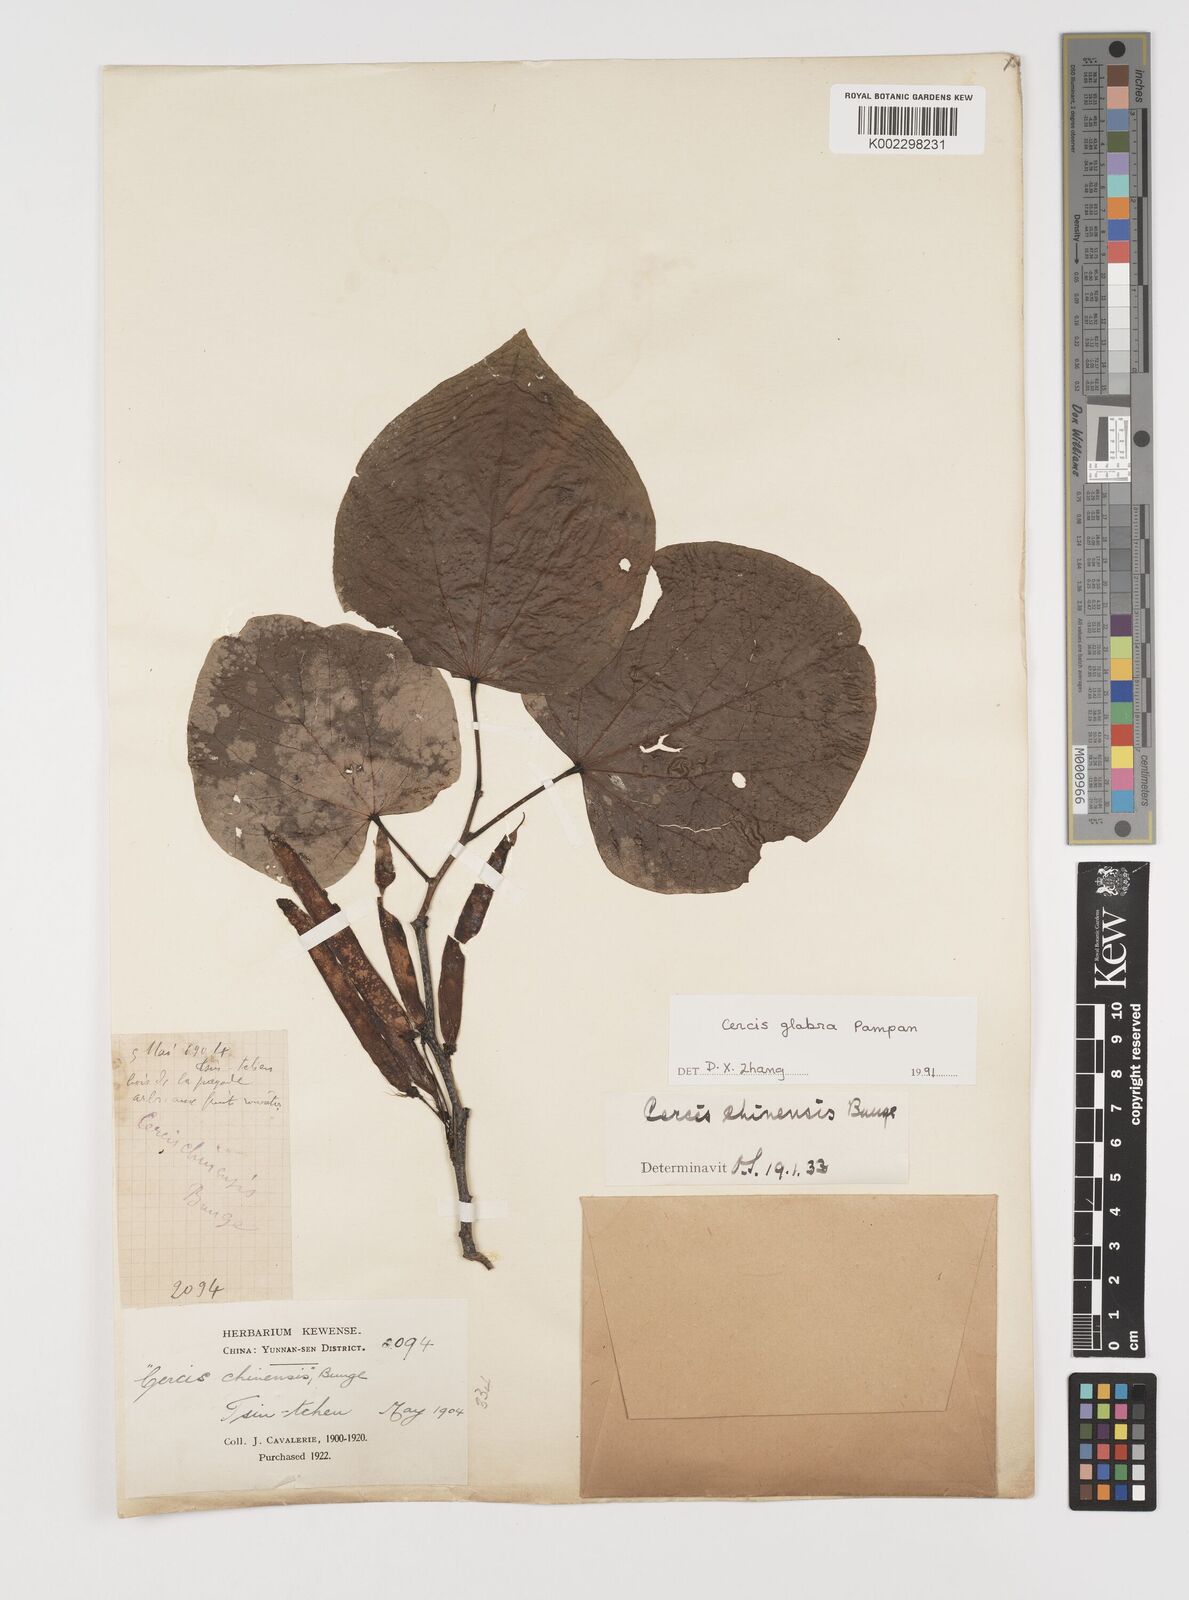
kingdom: Plantae
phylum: Tracheophyta
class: Magnoliopsida
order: Fabales
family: Fabaceae
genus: Cercis
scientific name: Cercis glabra
